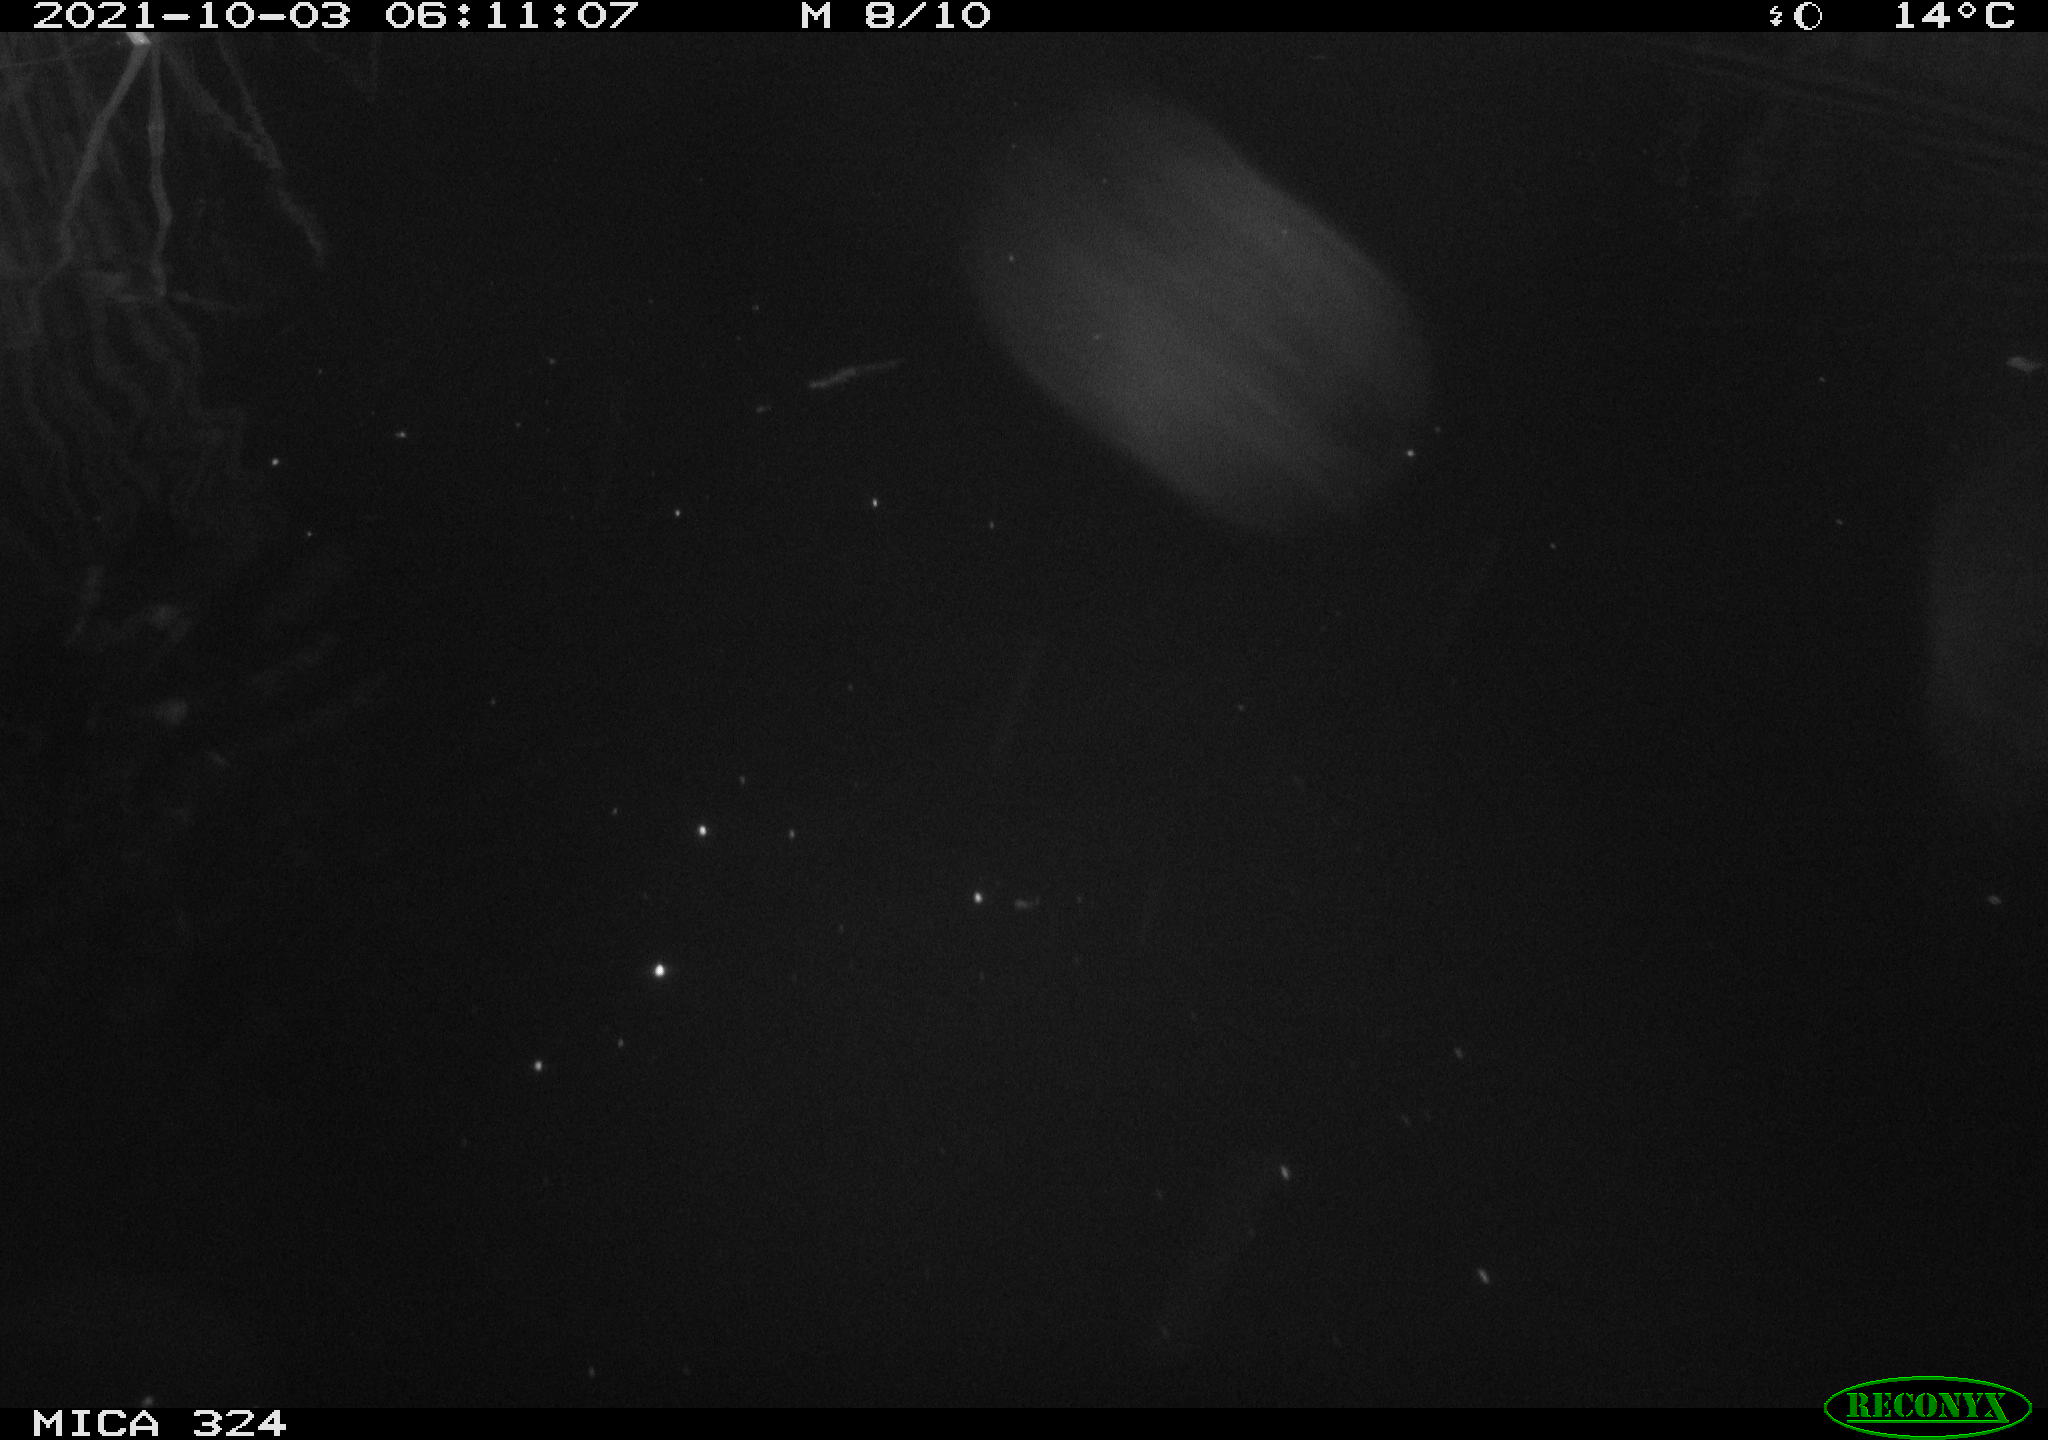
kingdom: Animalia
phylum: Chordata
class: Mammalia
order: Rodentia
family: Cricetidae
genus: Ondatra
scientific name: Ondatra zibethicus
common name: Muskrat
